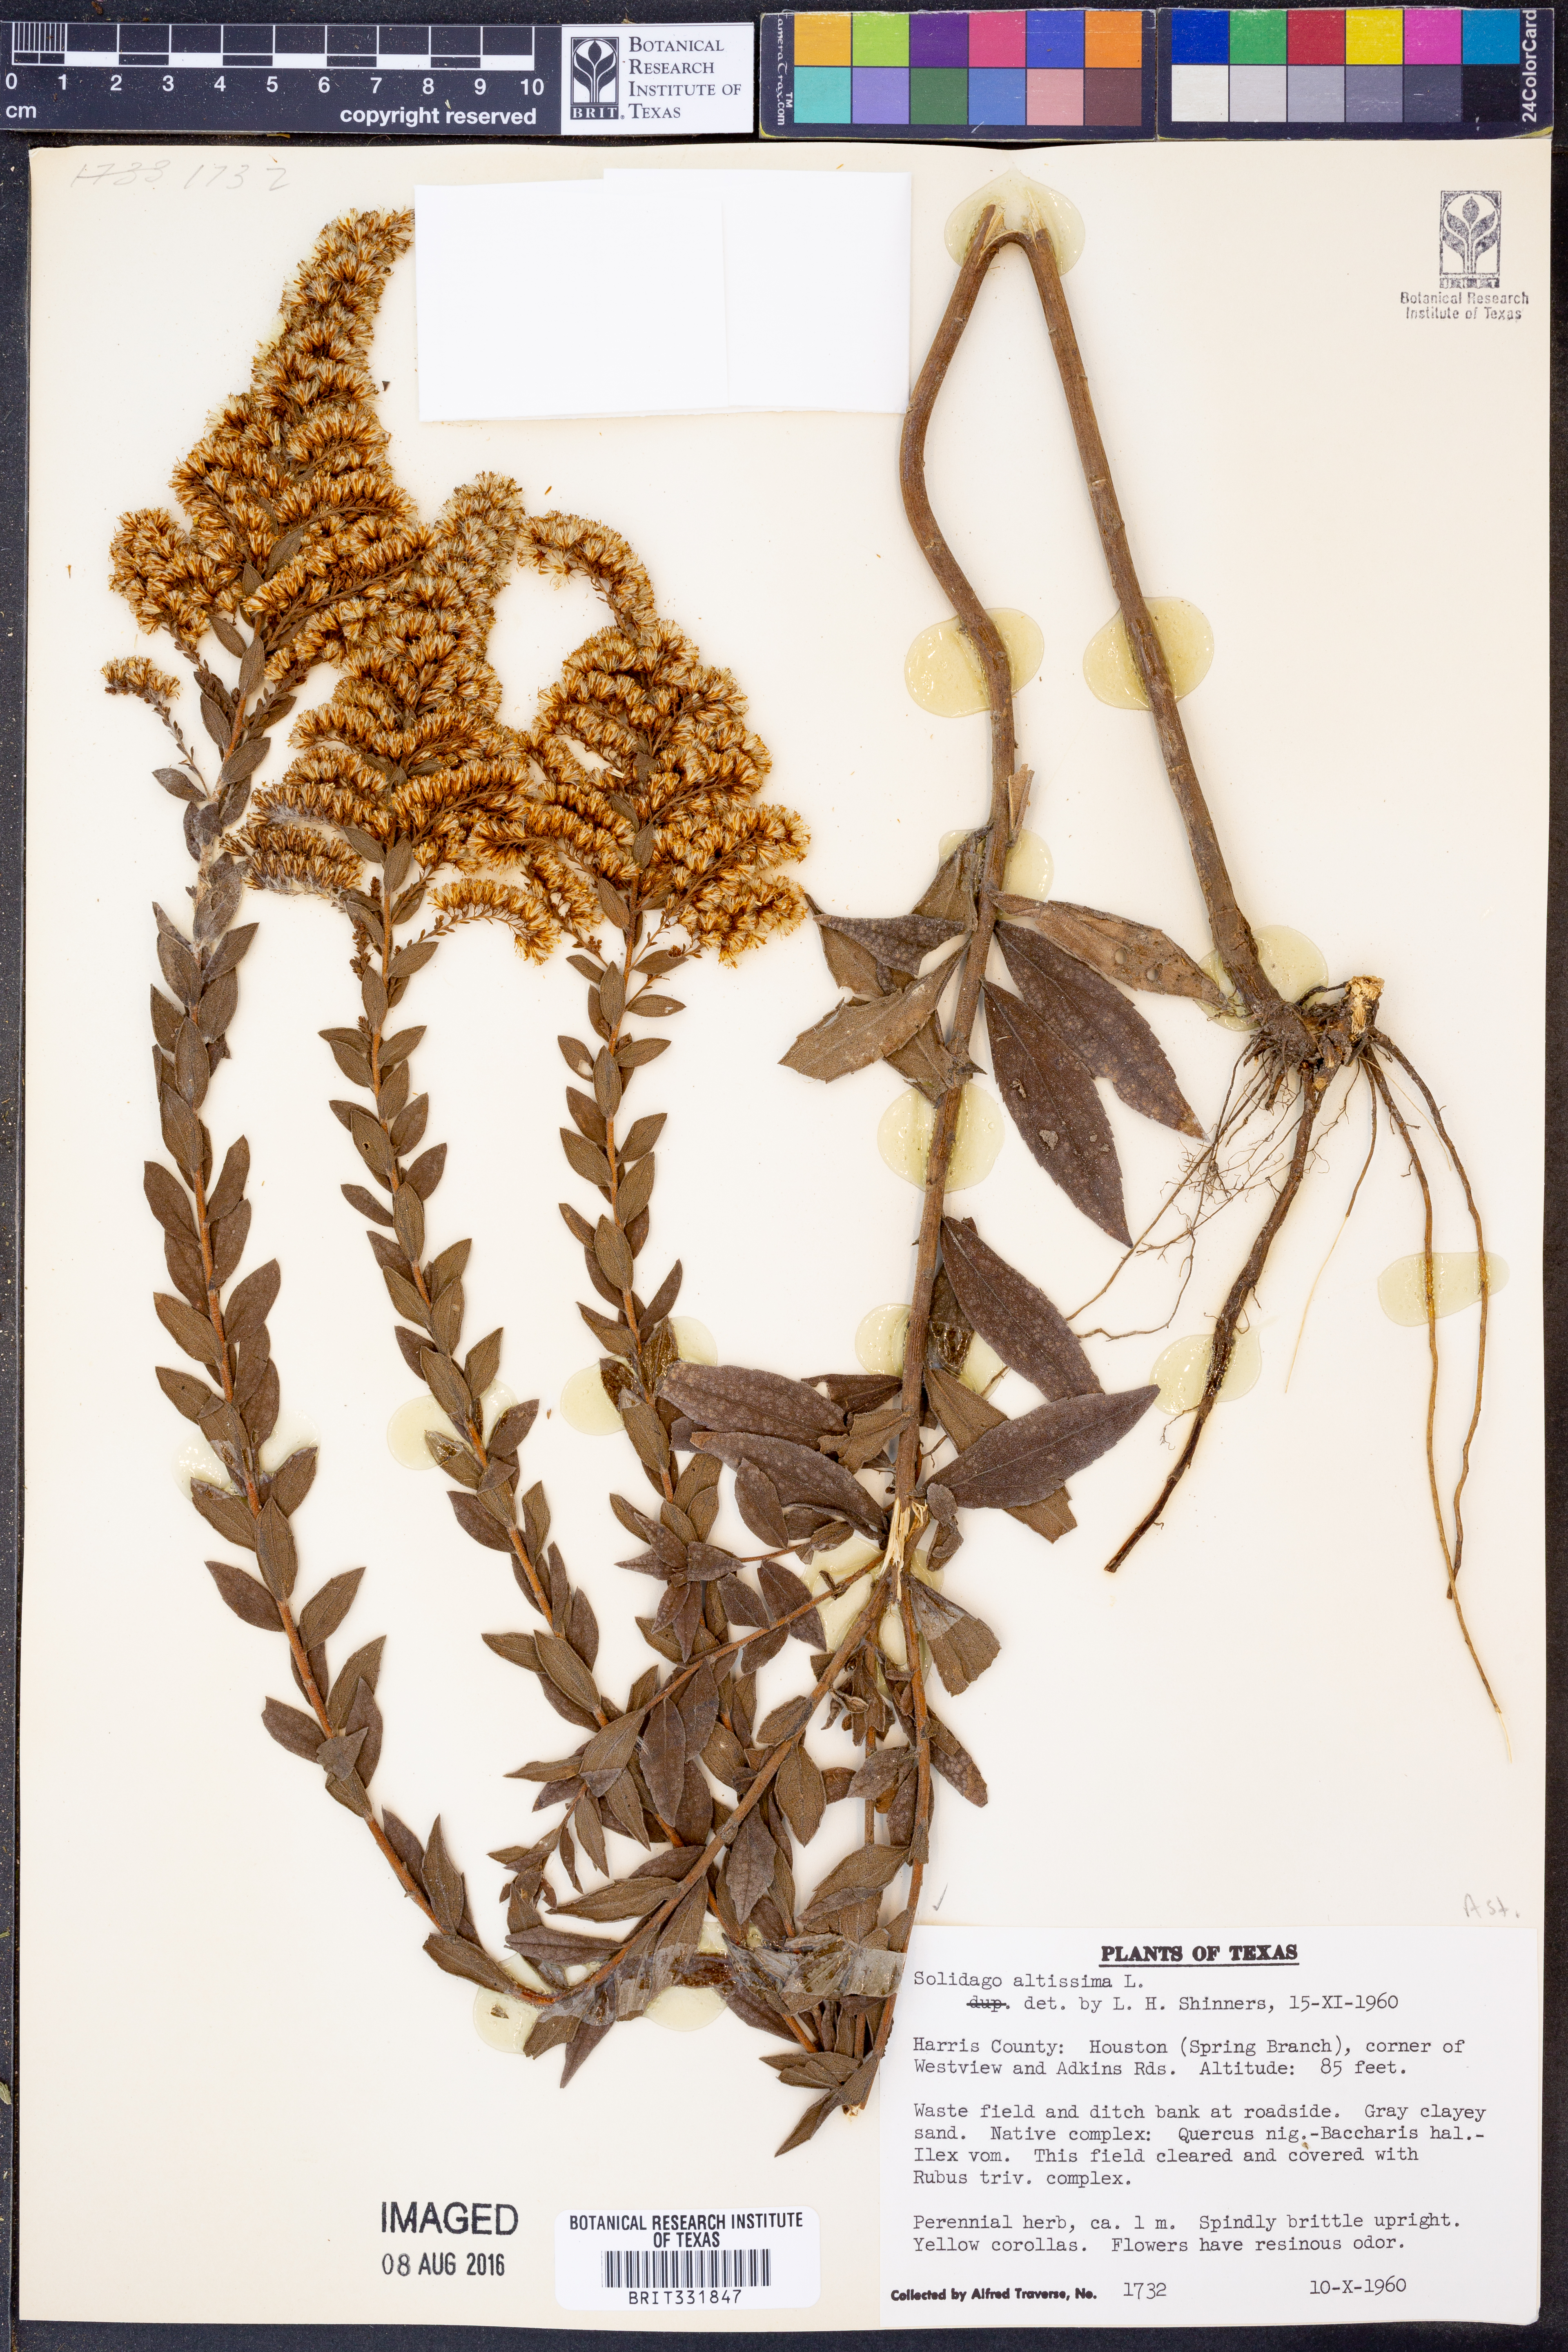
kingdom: Plantae
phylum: Tracheophyta
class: Magnoliopsida
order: Asterales
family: Asteraceae
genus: Solidago
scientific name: Solidago altissima
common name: Late goldenrod
